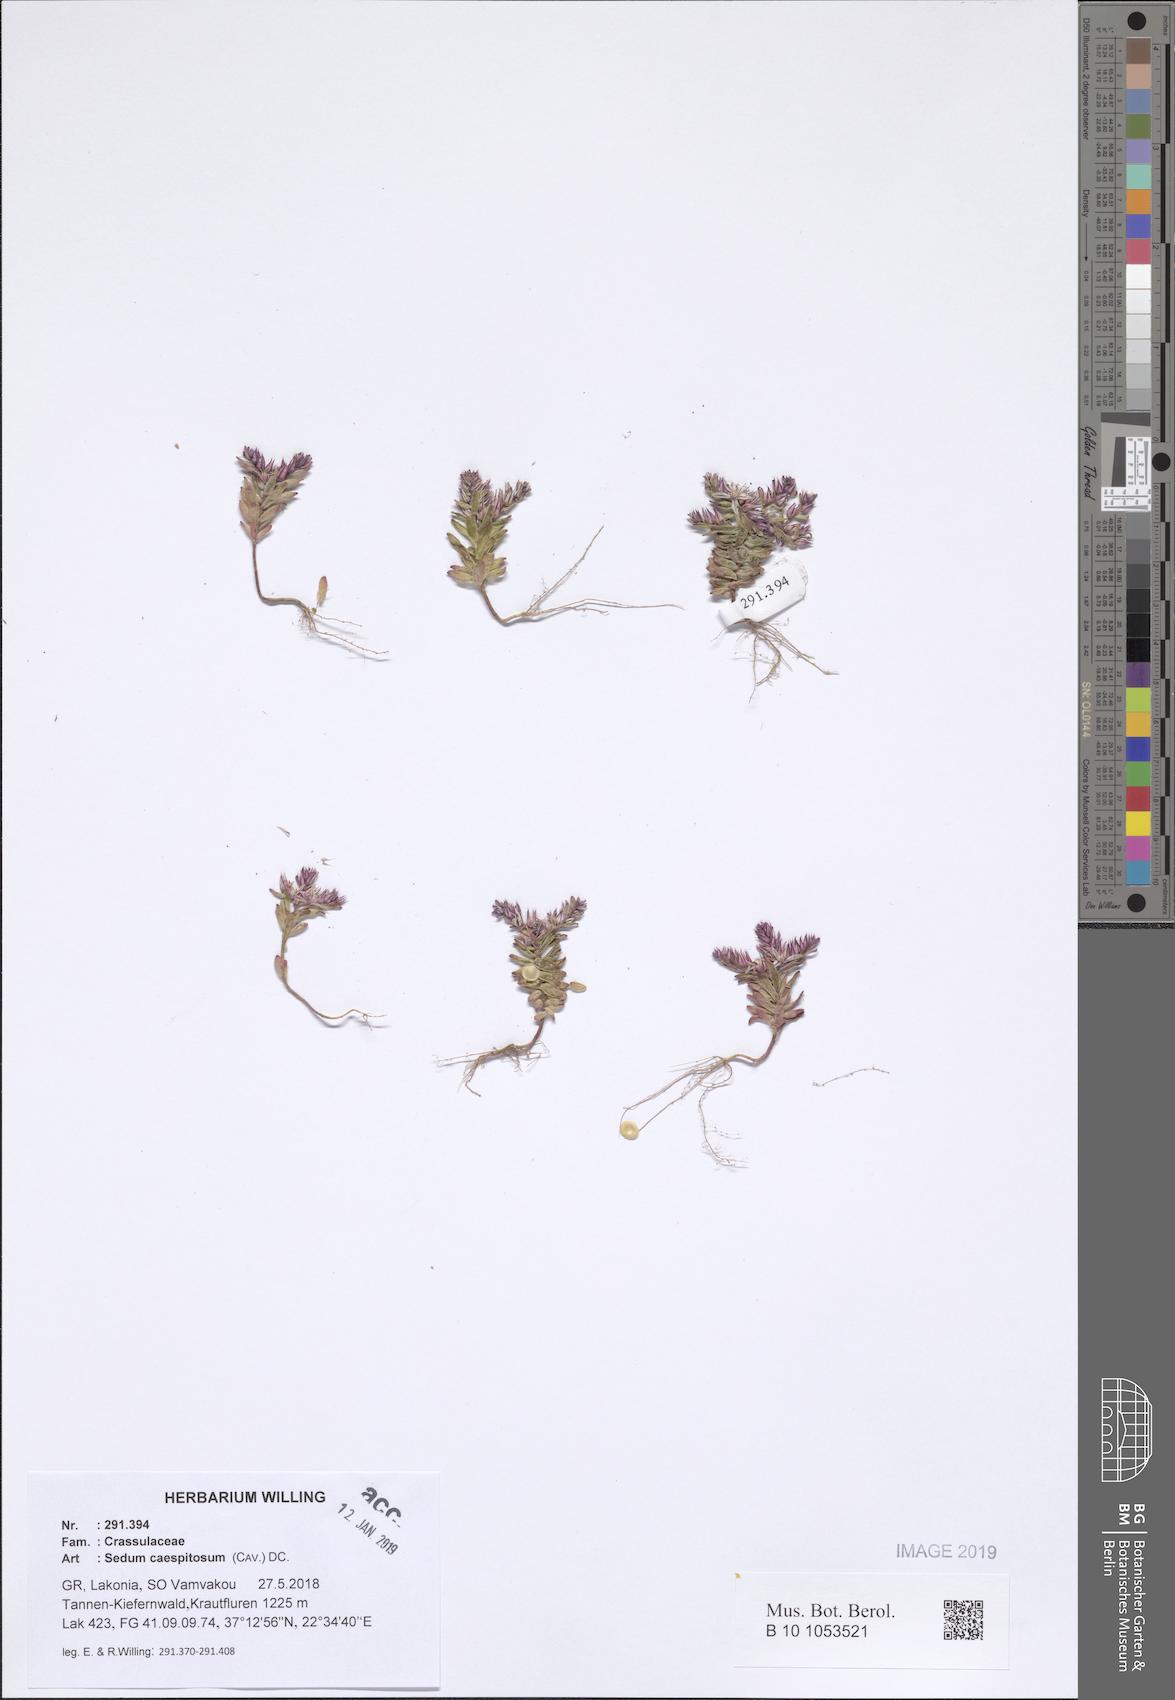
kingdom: Plantae
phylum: Tracheophyta
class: Magnoliopsida
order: Saxifragales
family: Crassulaceae
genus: Sedum
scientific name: Sedum cespitosum
